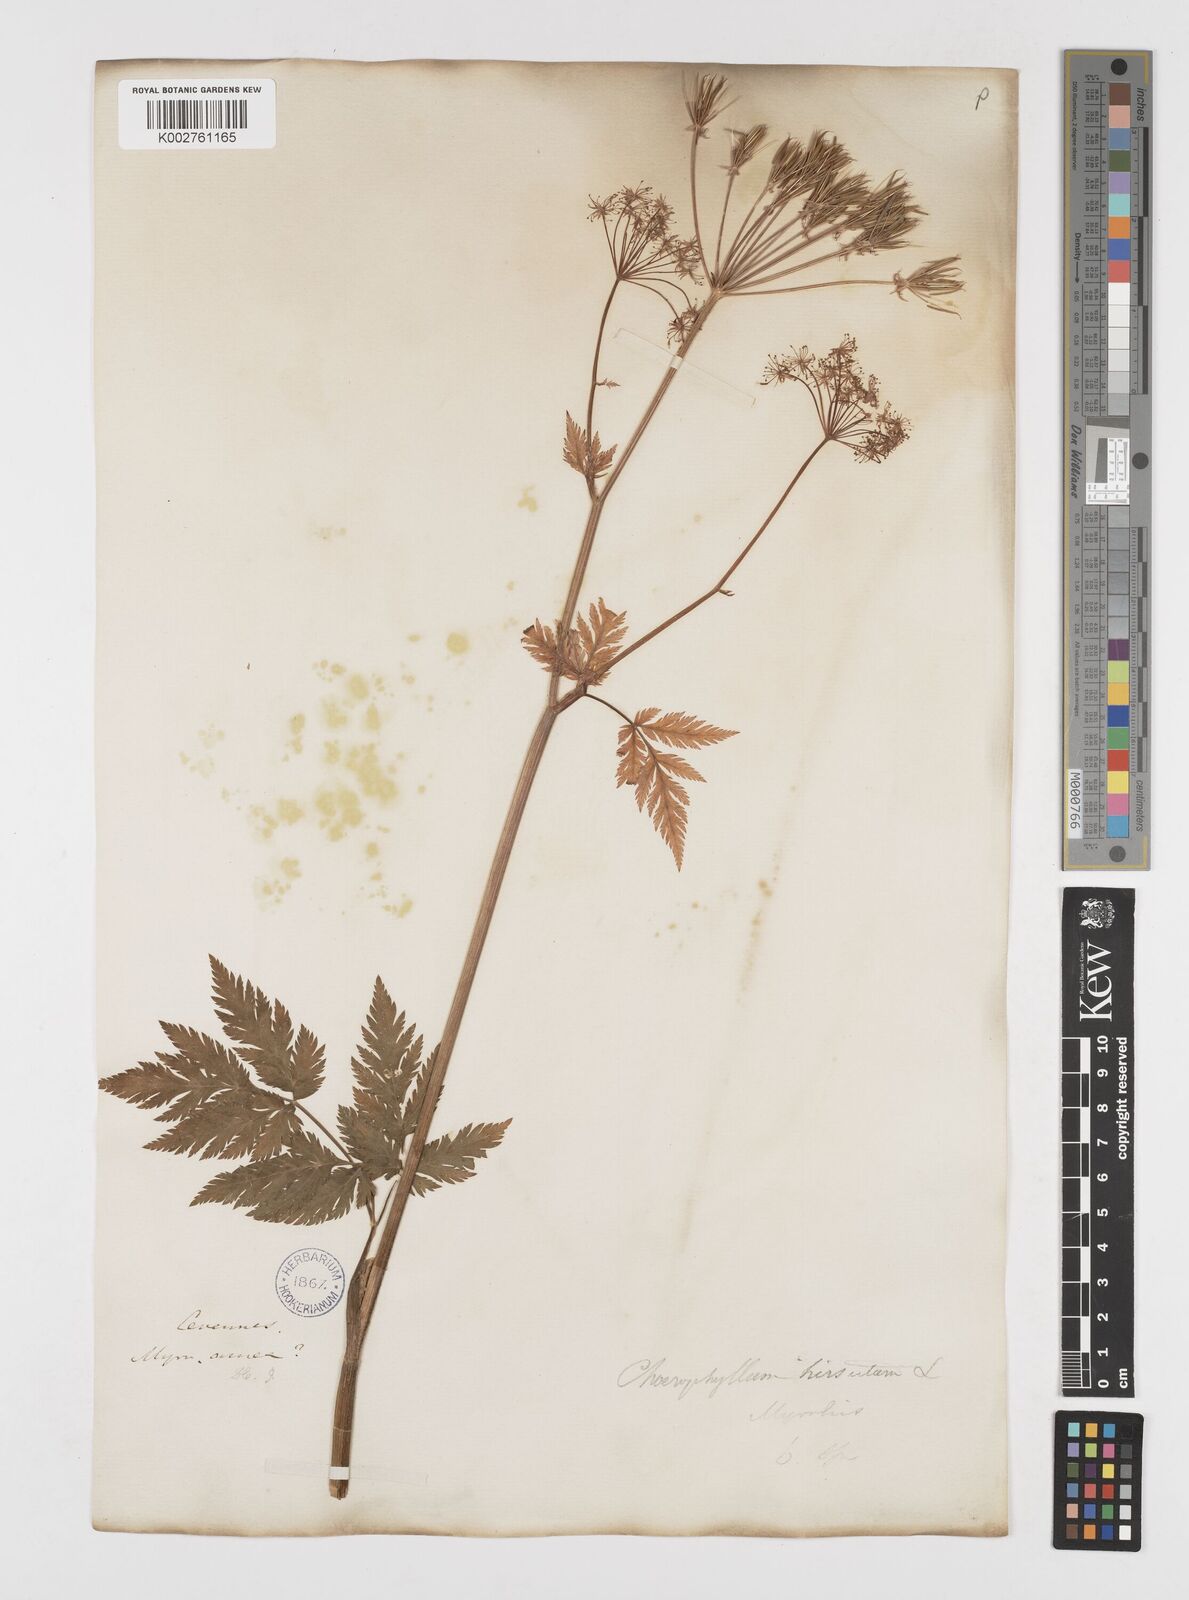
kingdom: Plantae
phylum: Tracheophyta
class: Magnoliopsida
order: Apiales
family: Apiaceae
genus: Chaerophyllum
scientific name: Chaerophyllum hirsutum
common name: Hairy chervil
